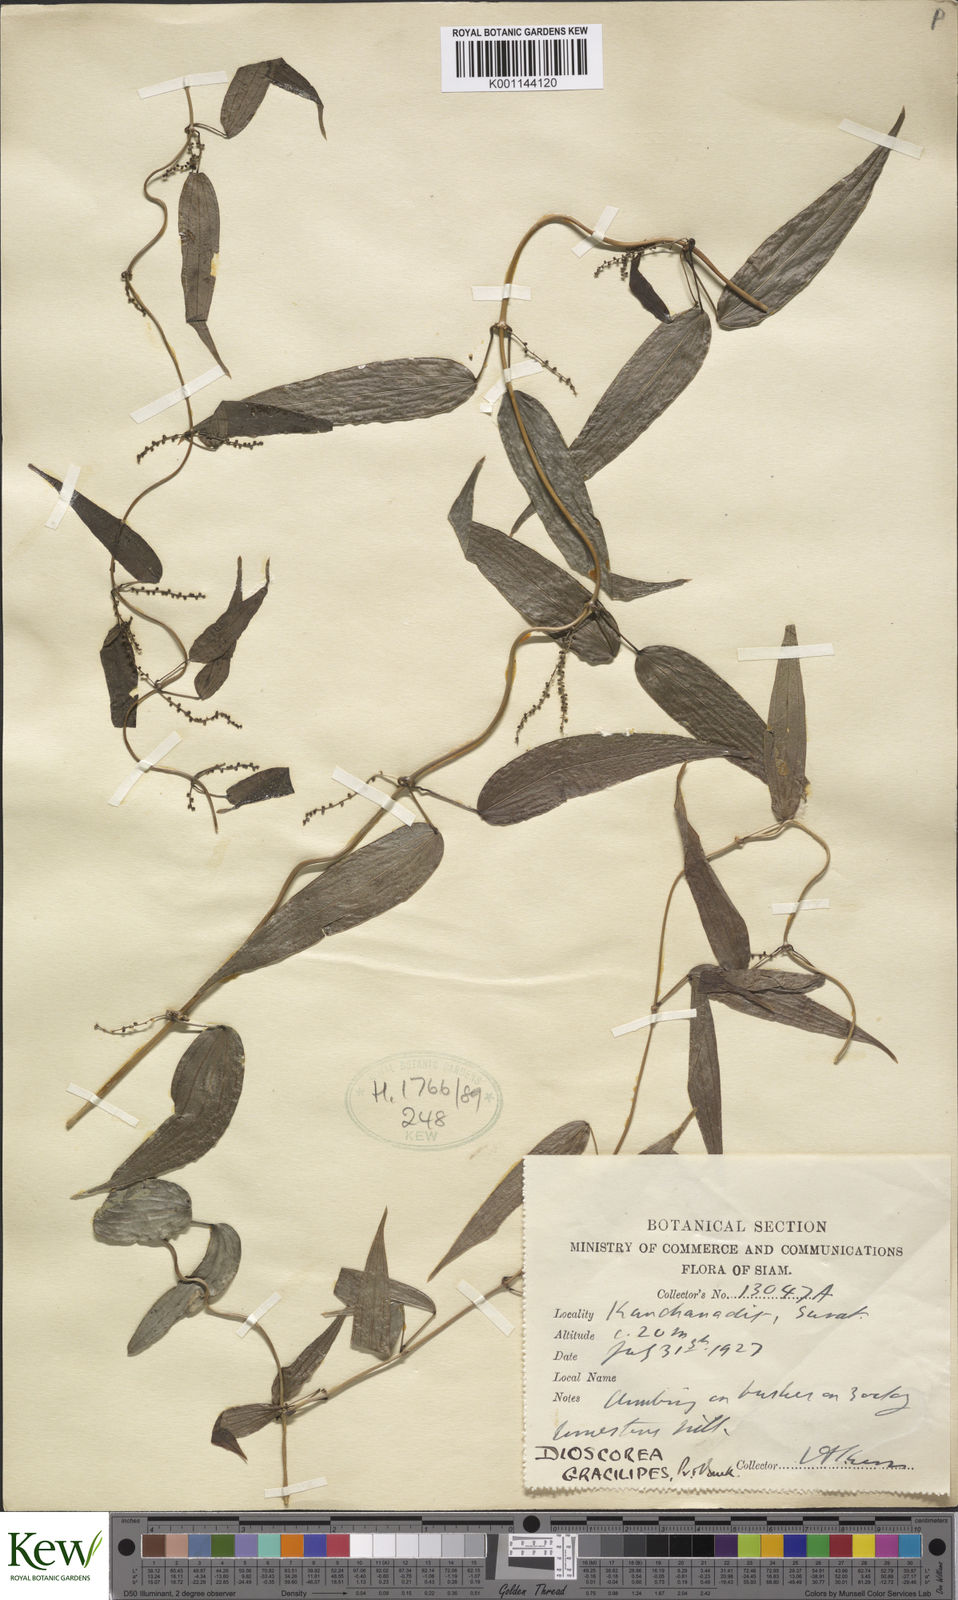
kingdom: Plantae
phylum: Tracheophyta
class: Liliopsida
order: Dioscoreales
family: Dioscoreaceae
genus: Dioscorea
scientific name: Dioscorea gracilipes
